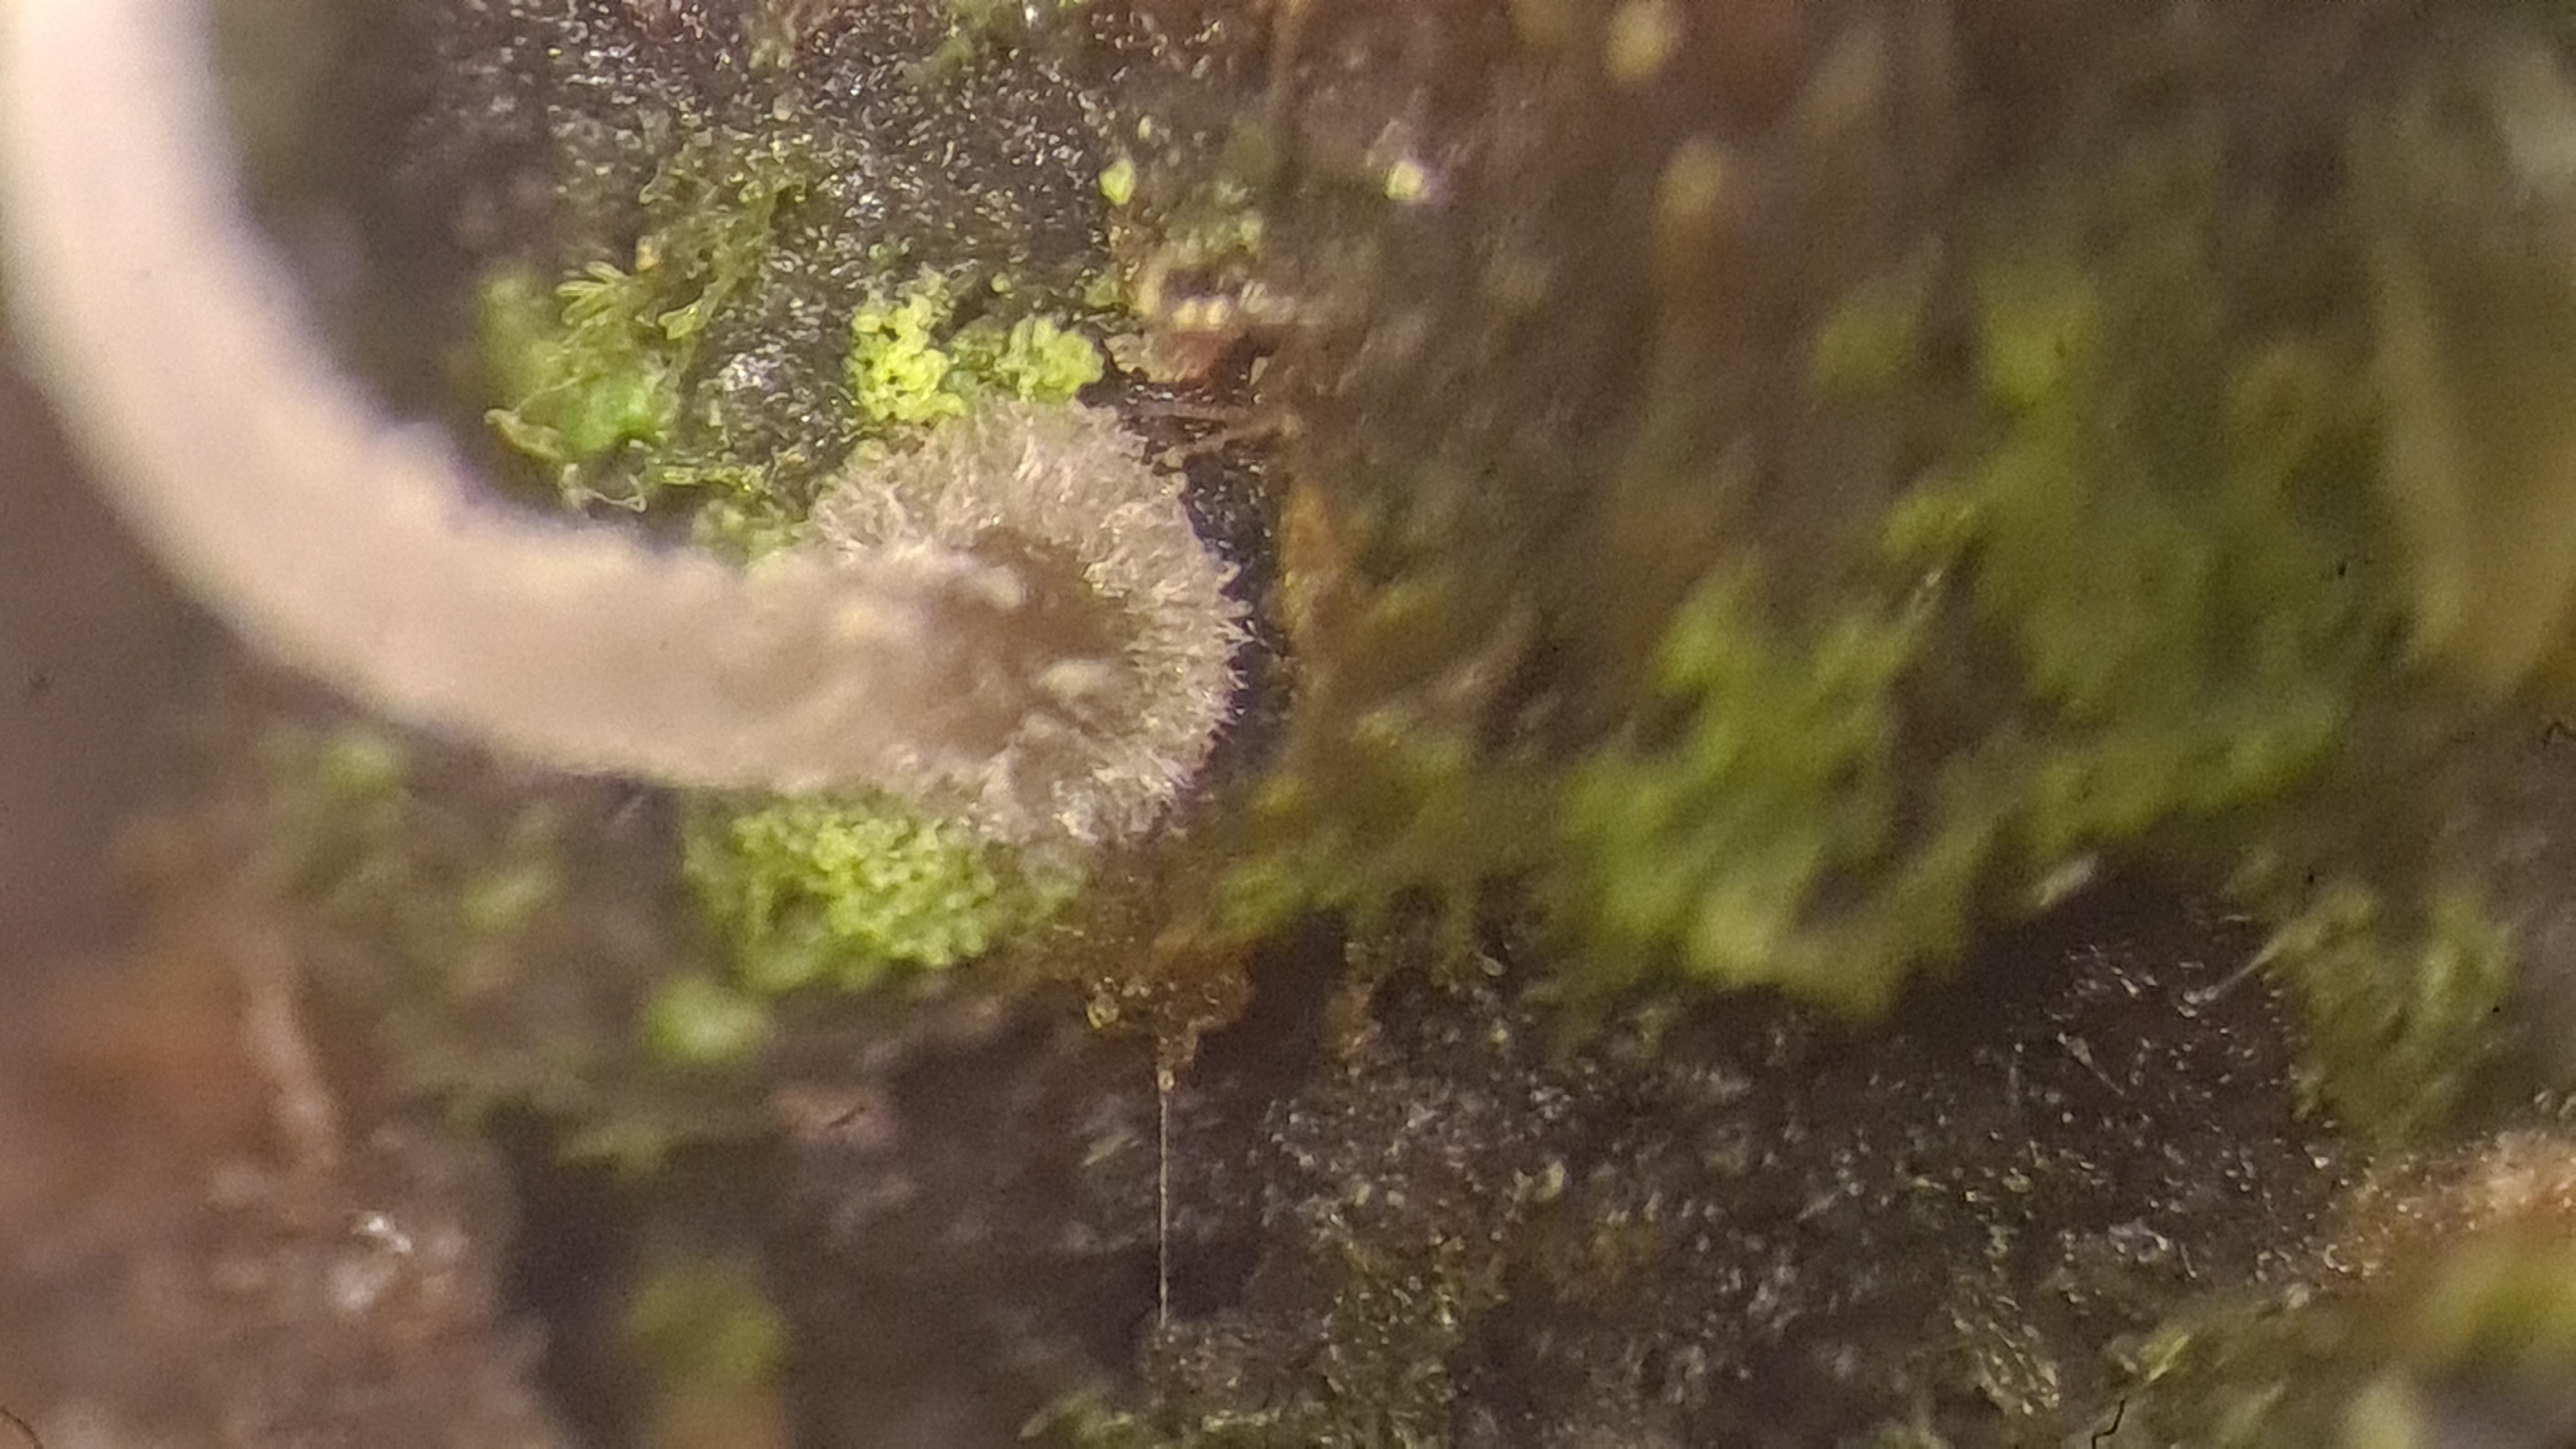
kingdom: Fungi
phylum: Basidiomycota
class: Agaricomycetes
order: Agaricales
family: Mycenaceae
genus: Mycena
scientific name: Mycena clavularis
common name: dunskivet huesvamp
